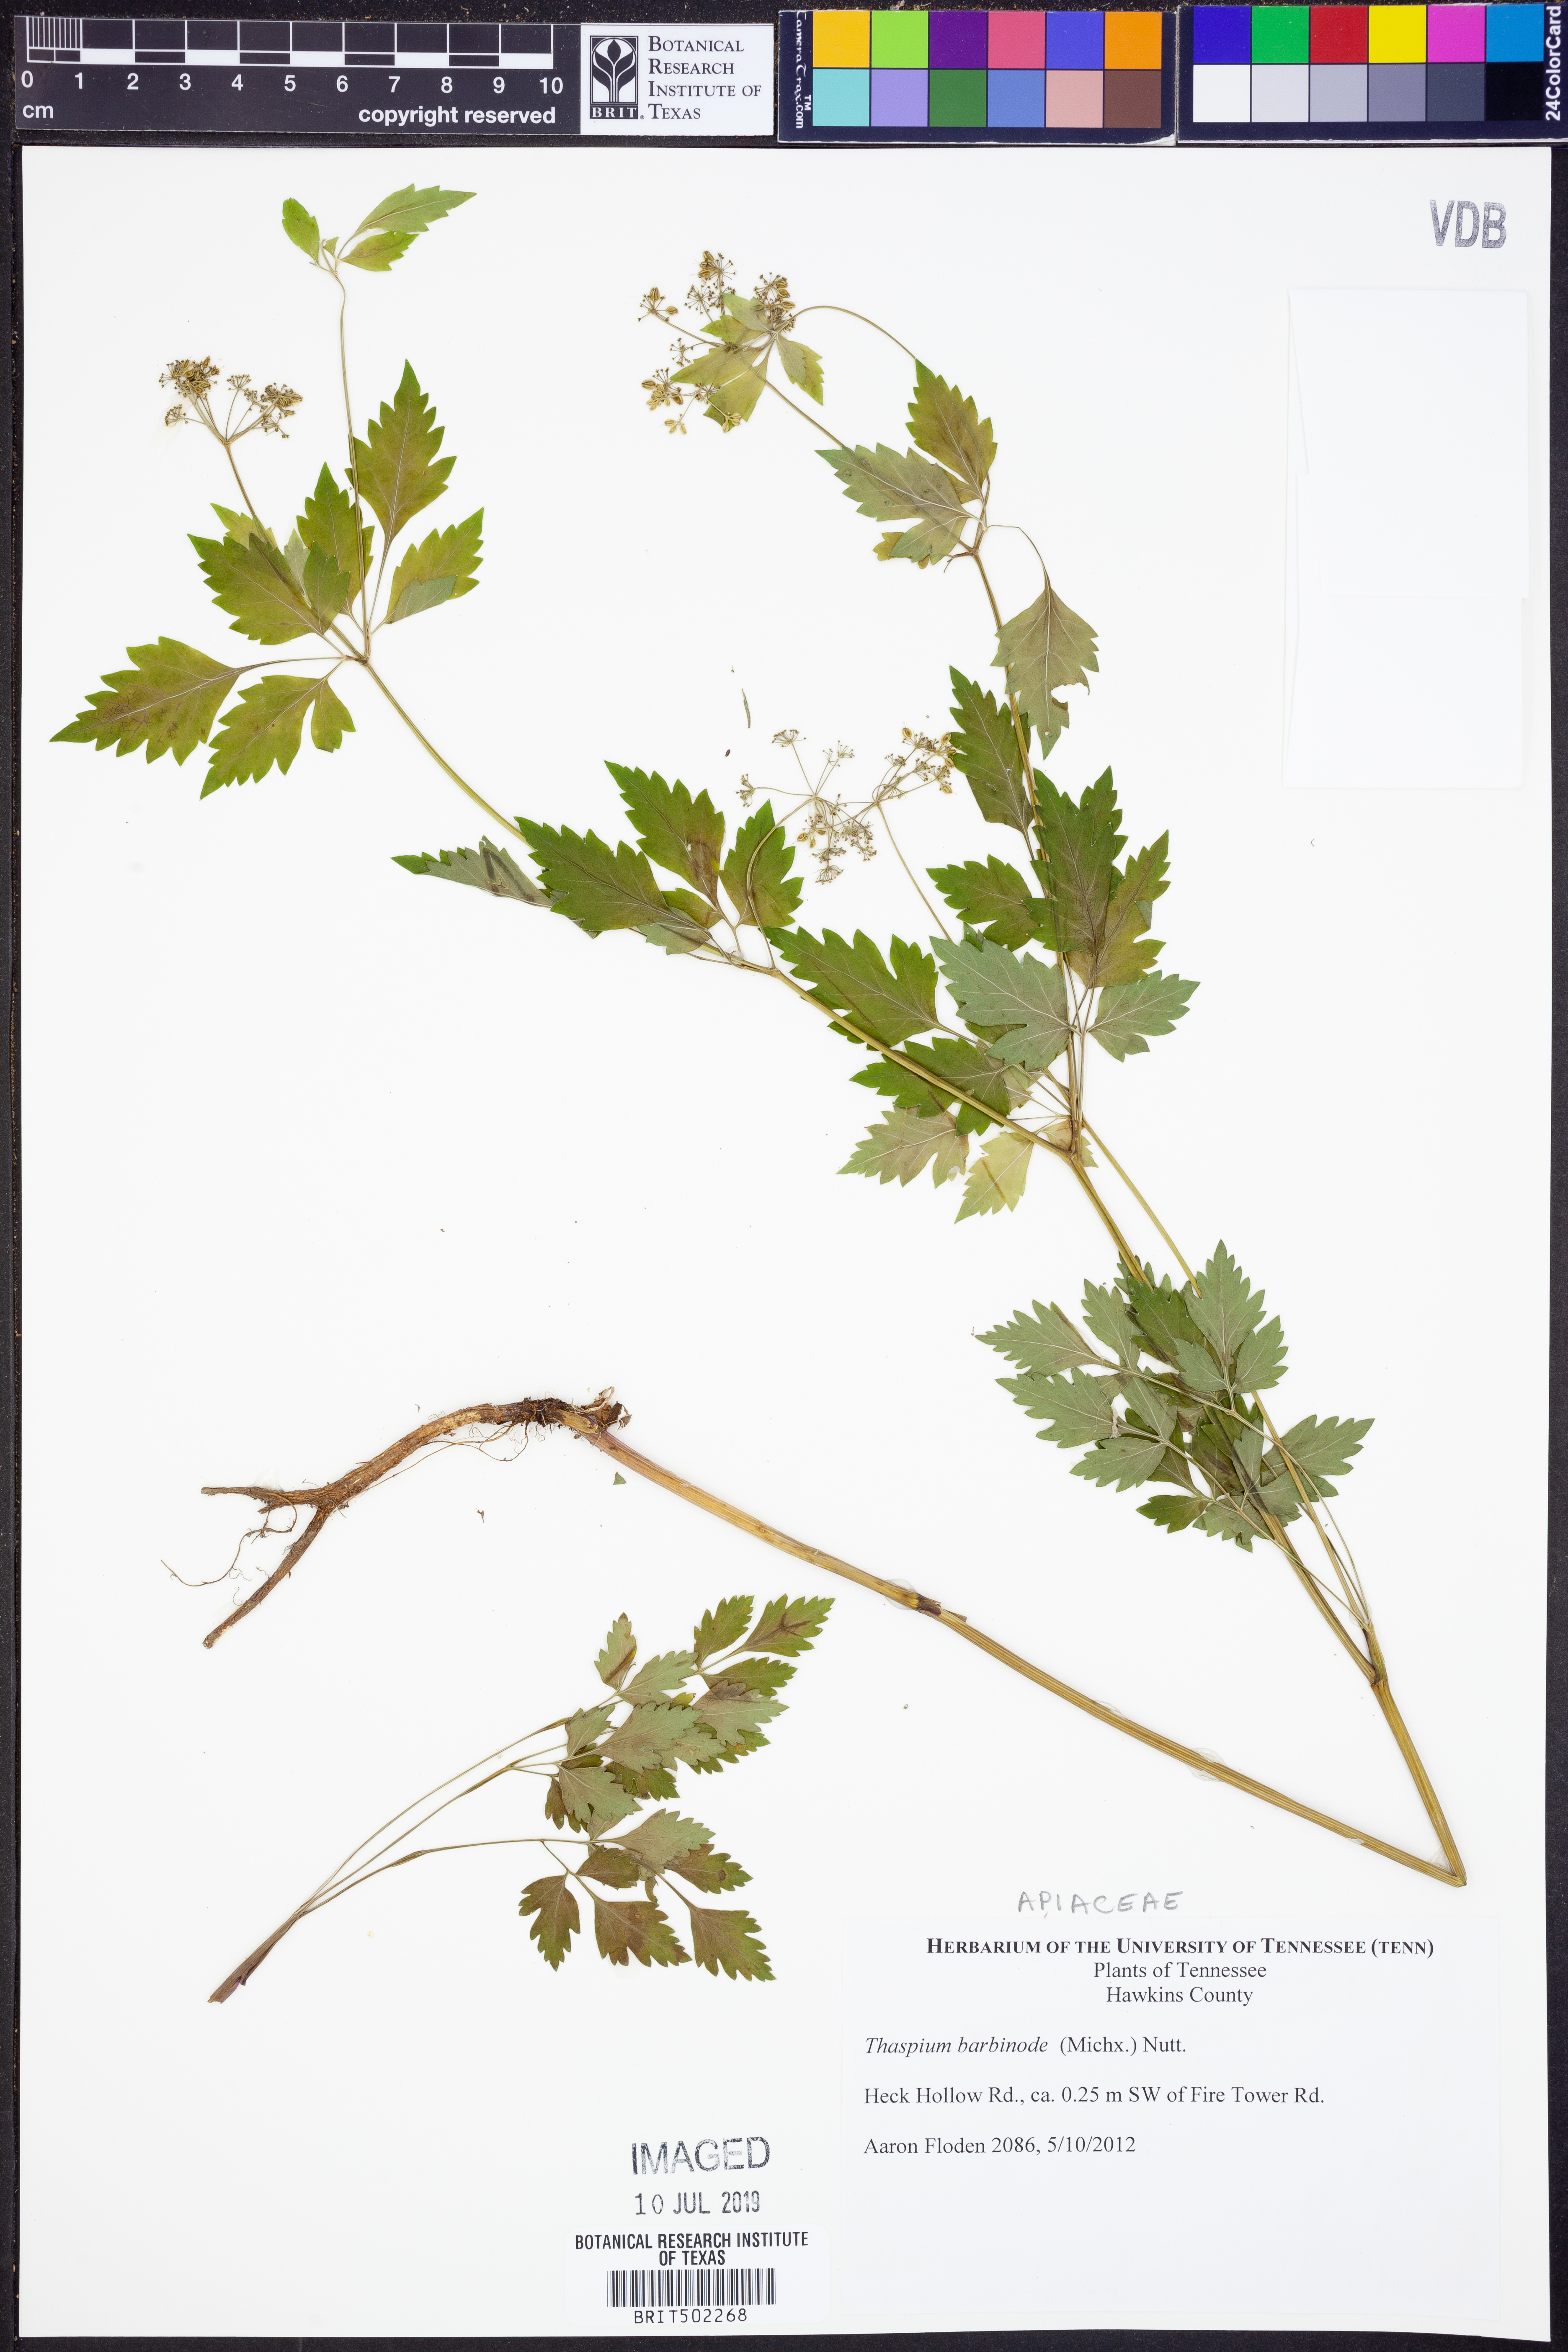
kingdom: Plantae
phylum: Tracheophyta
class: Magnoliopsida
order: Apiales
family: Apiaceae
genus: Thaspium
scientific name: Thaspium barbinode
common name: Bearded meadow-parsnip
